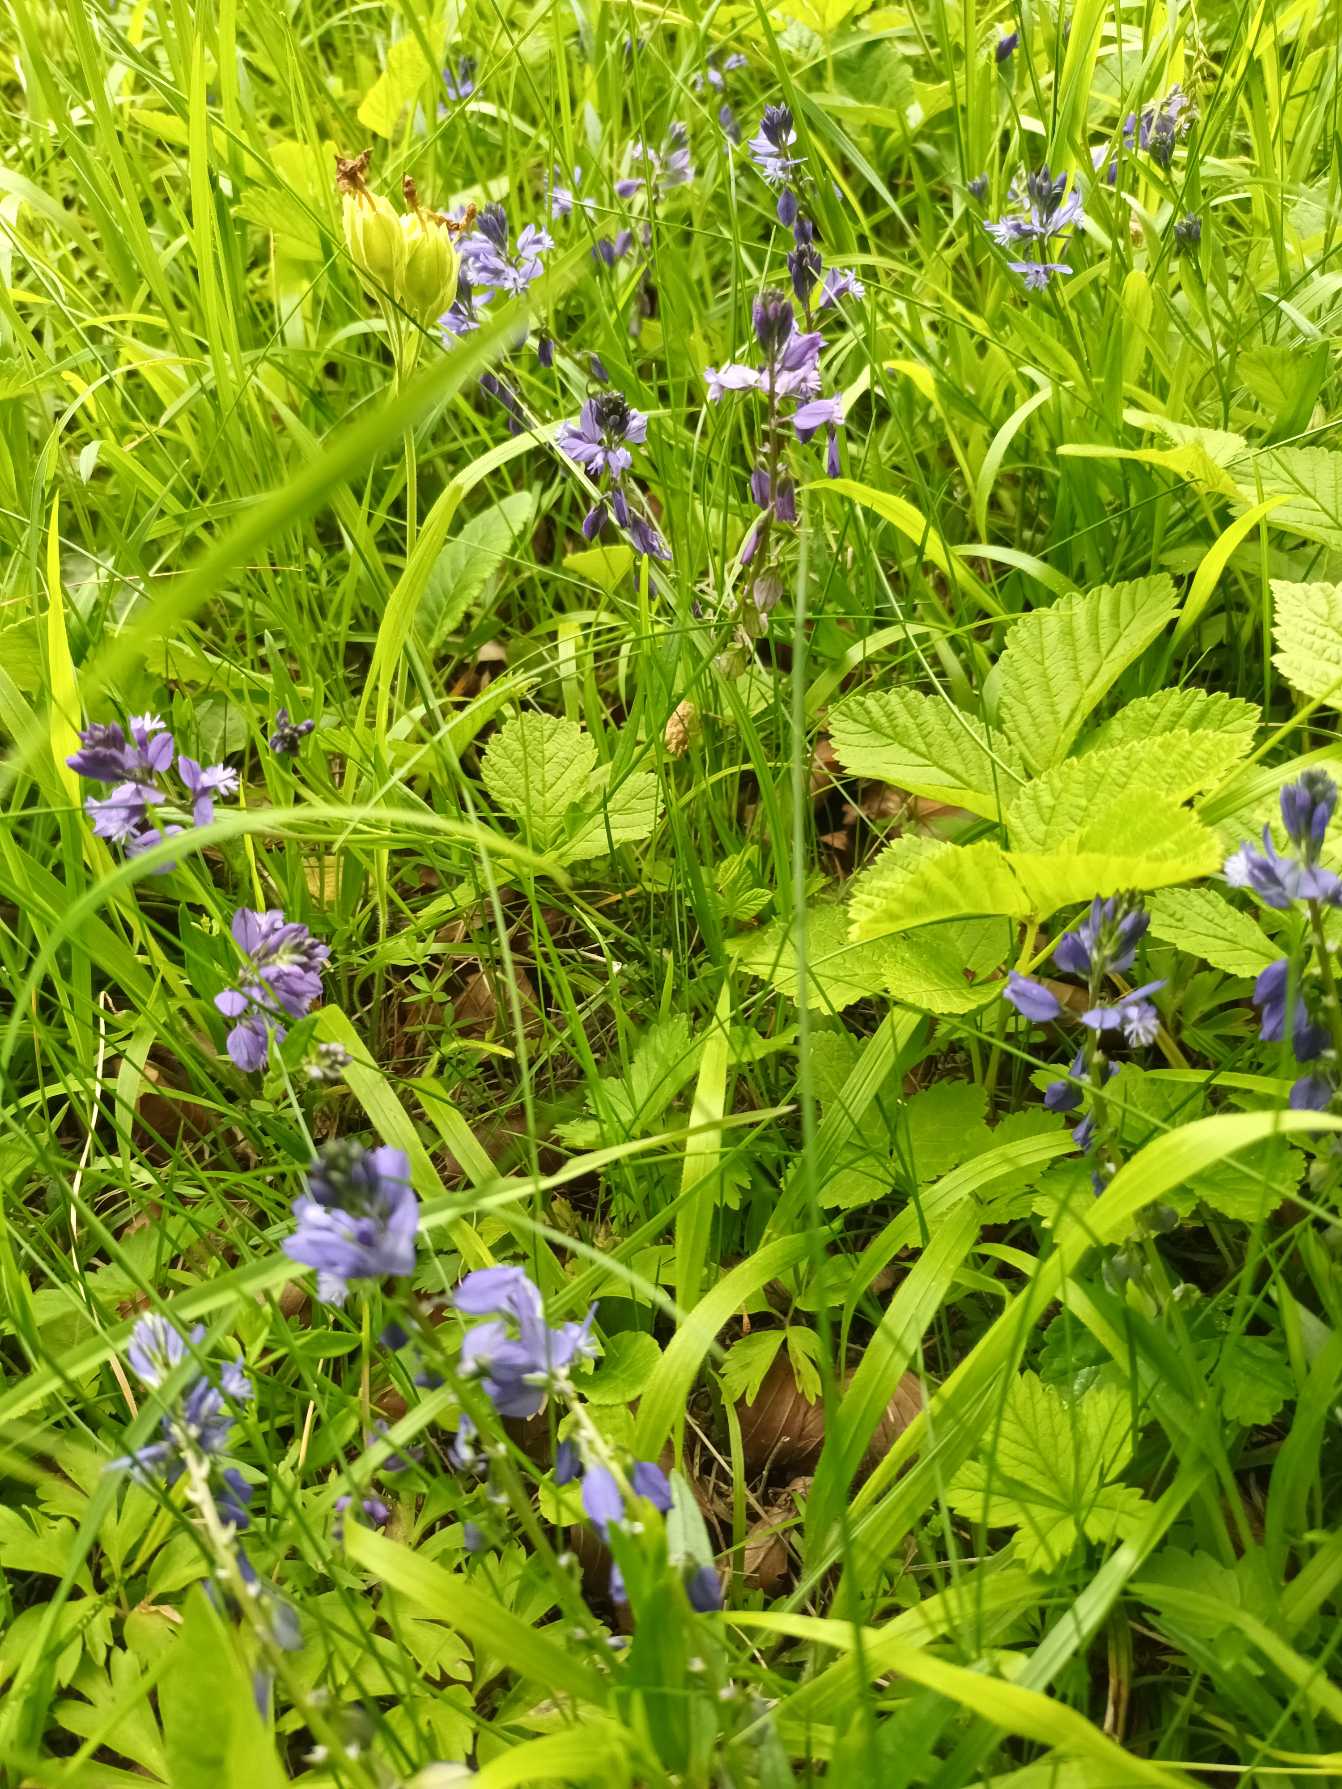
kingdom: Plantae
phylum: Tracheophyta
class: Magnoliopsida
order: Fabales
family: Polygalaceae
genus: Polygala
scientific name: Polygala vulgaris
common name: Almindelig mælkeurt
